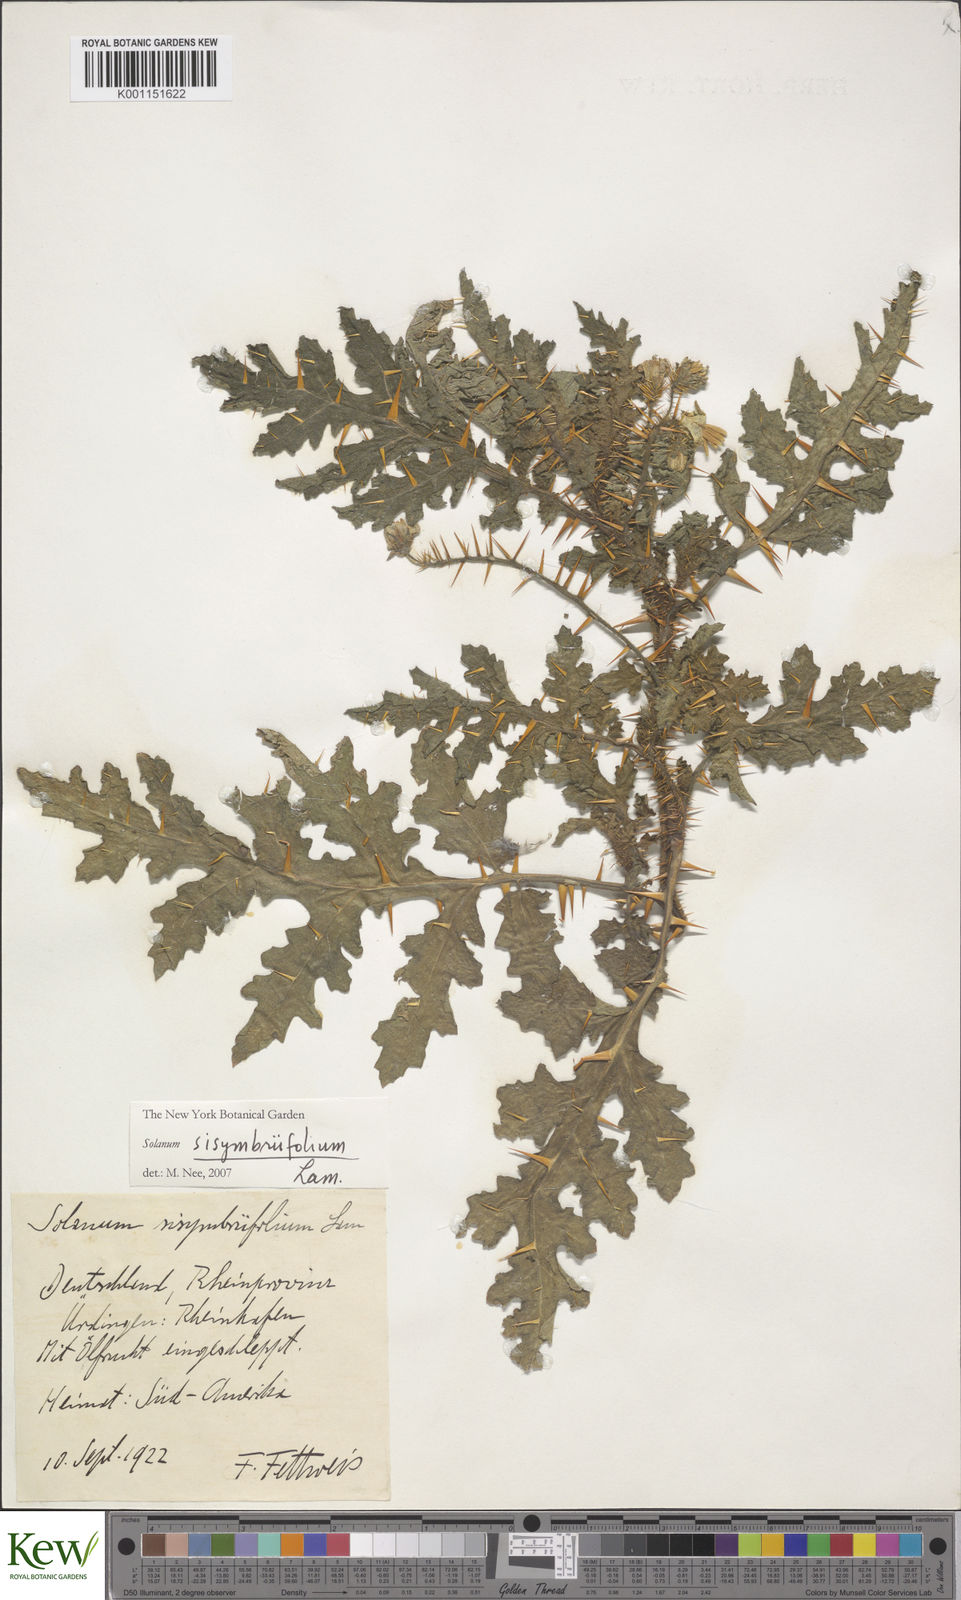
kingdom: Plantae
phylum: Tracheophyta
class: Magnoliopsida
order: Solanales
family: Solanaceae
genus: Solanum
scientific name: Solanum sisymbriifolium
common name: Red buffalo-bur
